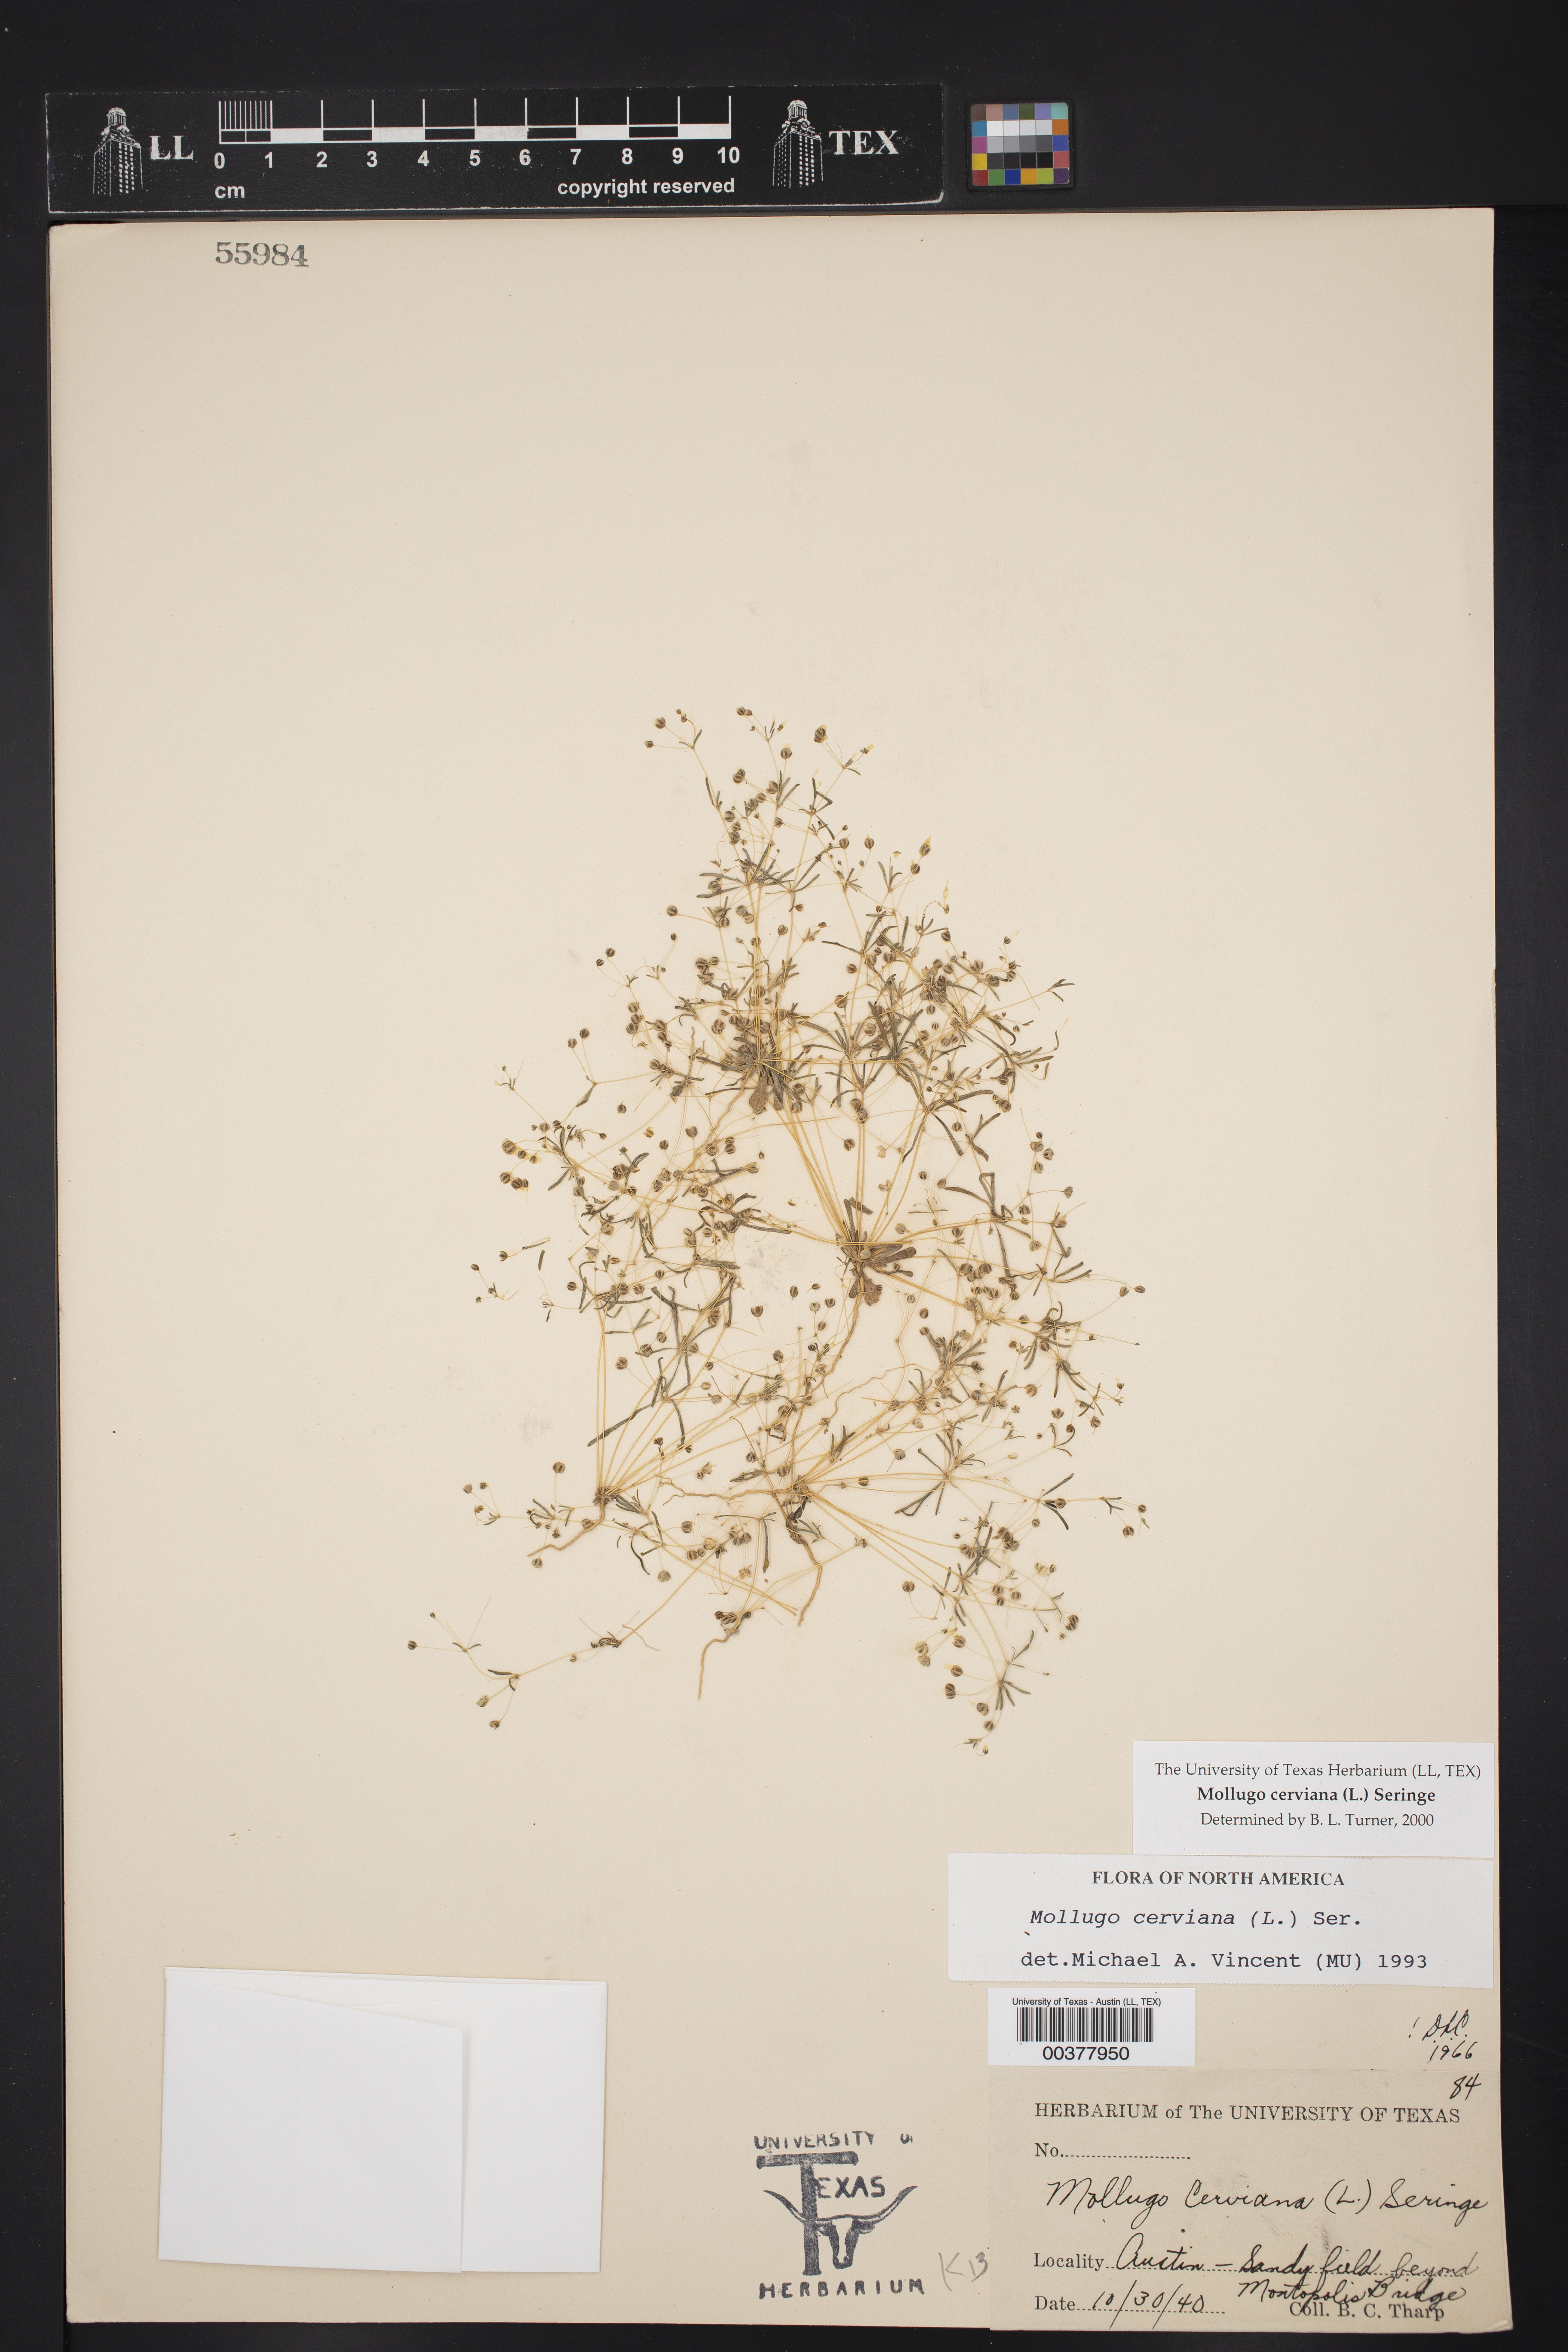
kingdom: Plantae
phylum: Tracheophyta
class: Magnoliopsida
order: Caryophyllales
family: Molluginaceae
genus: Hypertelis
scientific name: Hypertelis cerviana
